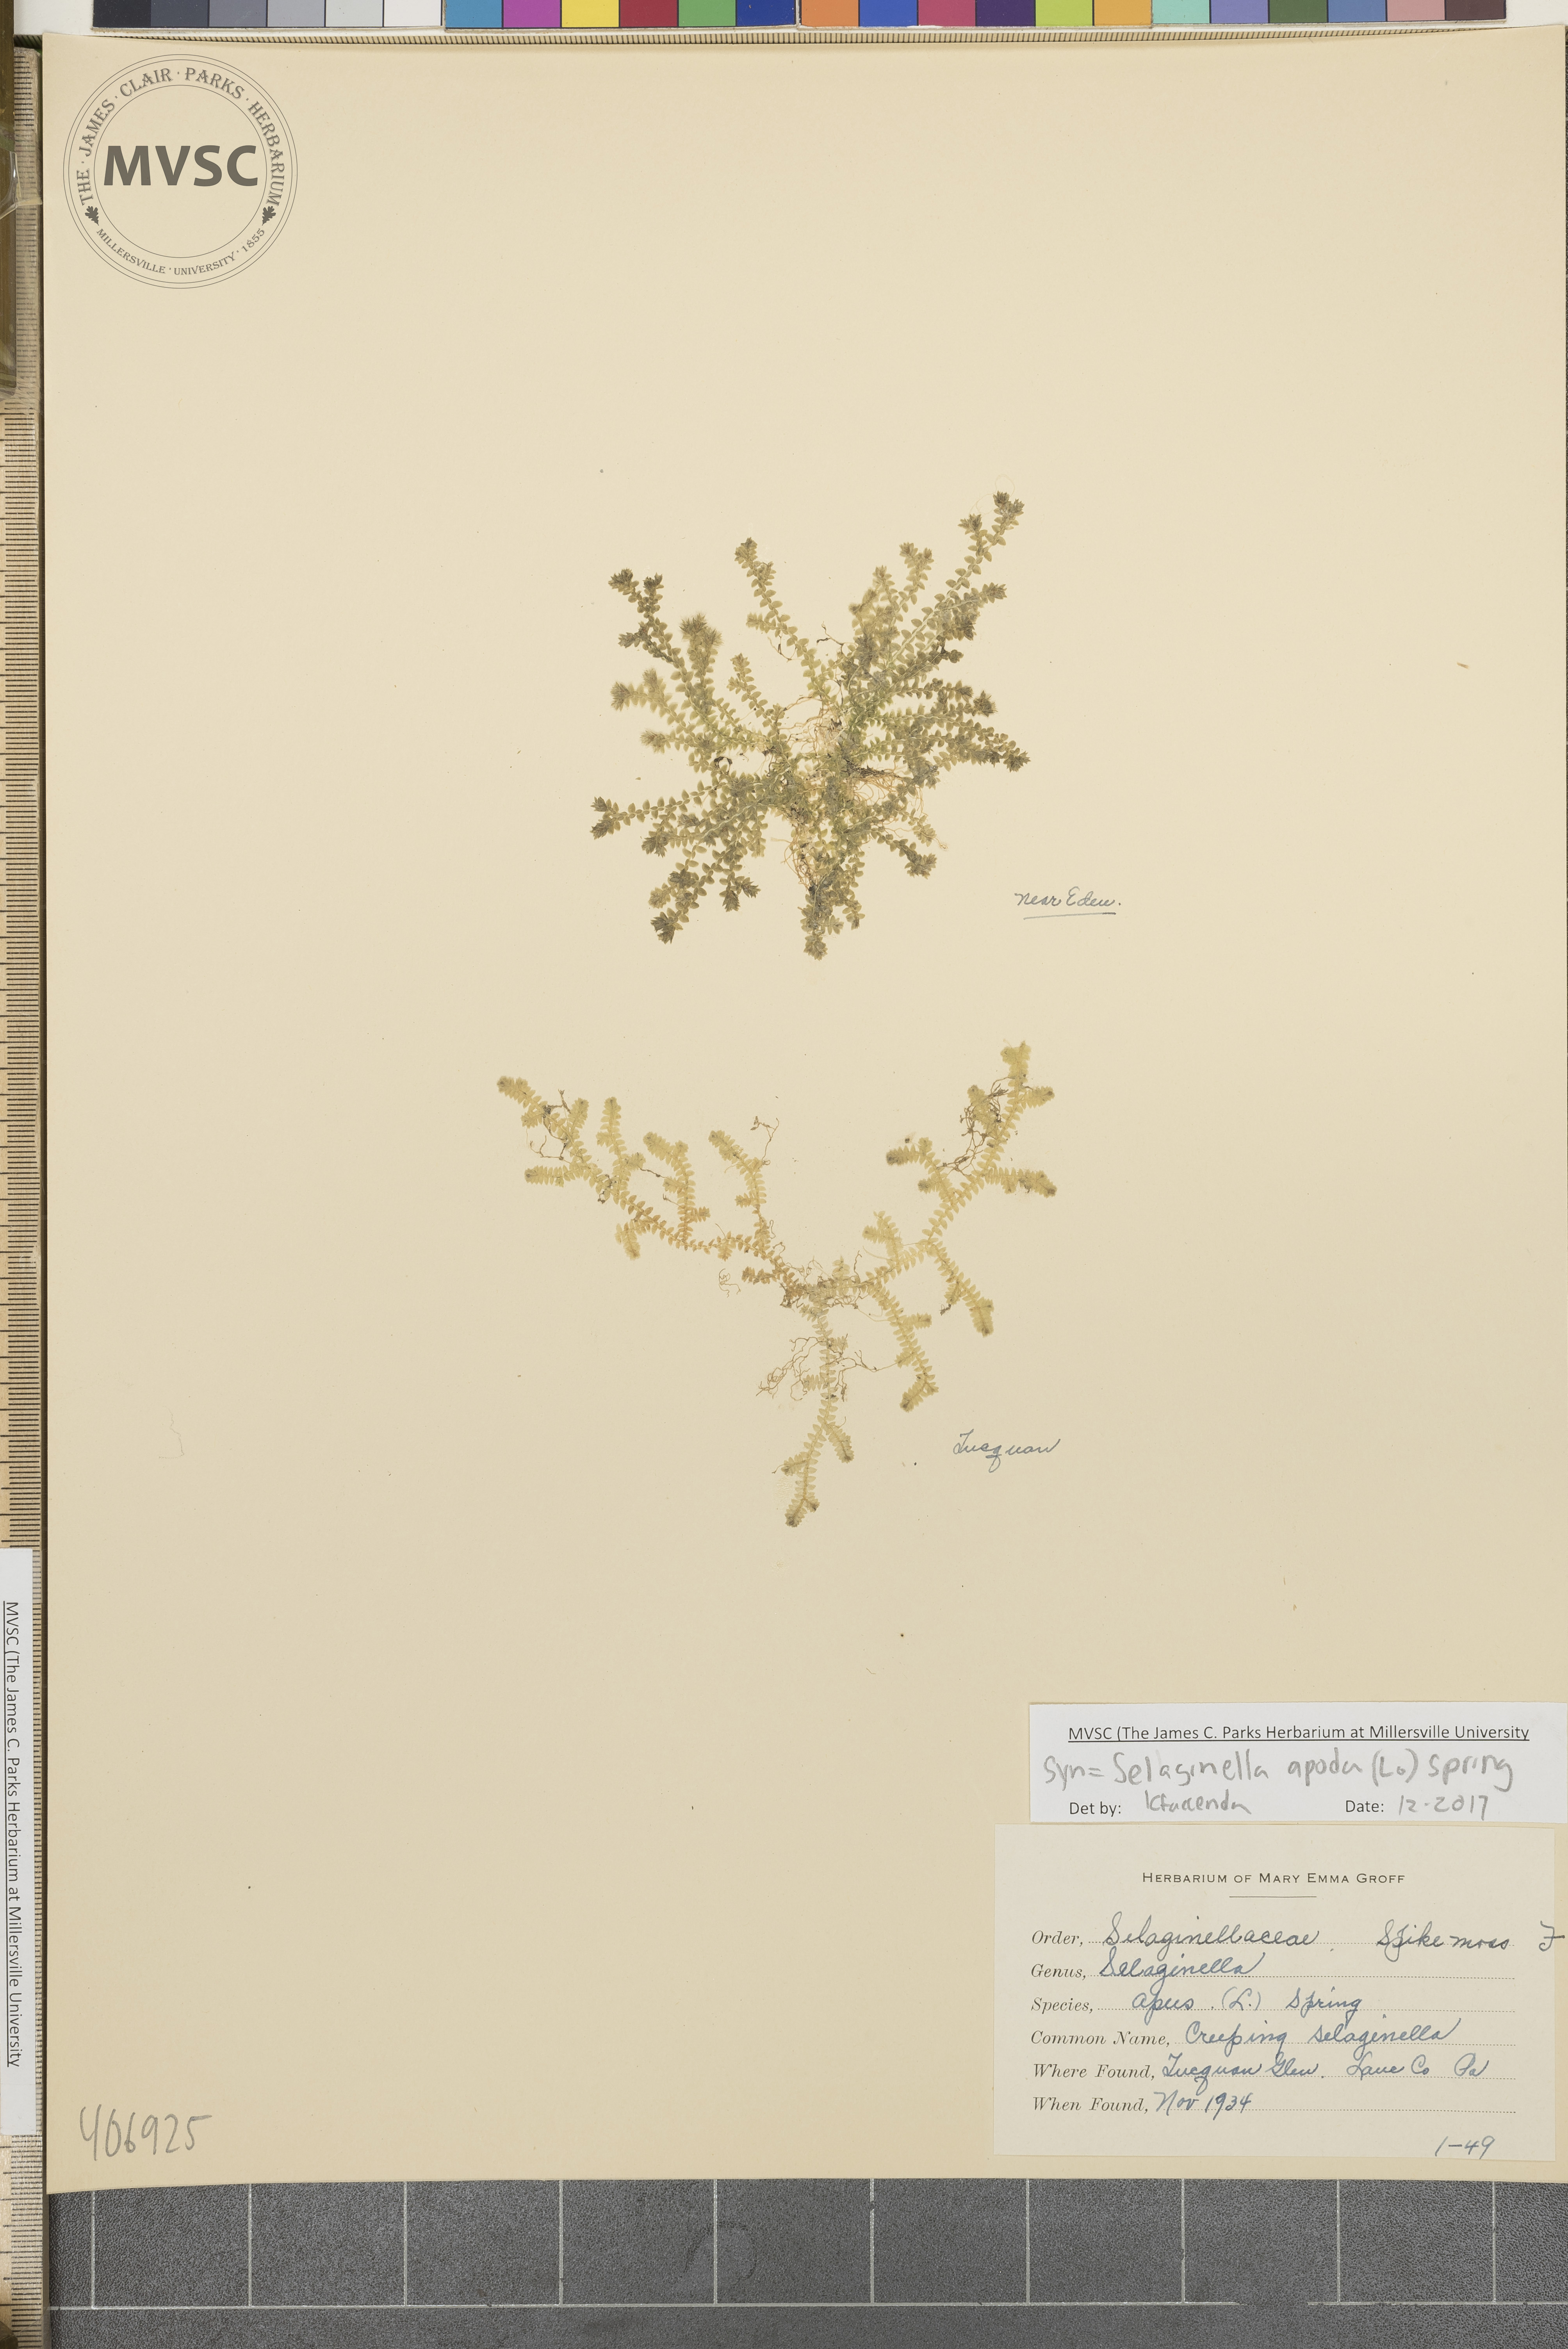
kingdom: Plantae
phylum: Tracheophyta
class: Lycopodiopsida
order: Selaginellales
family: Selaginellaceae
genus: Selaginella
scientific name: Selaginella apoda
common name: Creeping spikemoss
